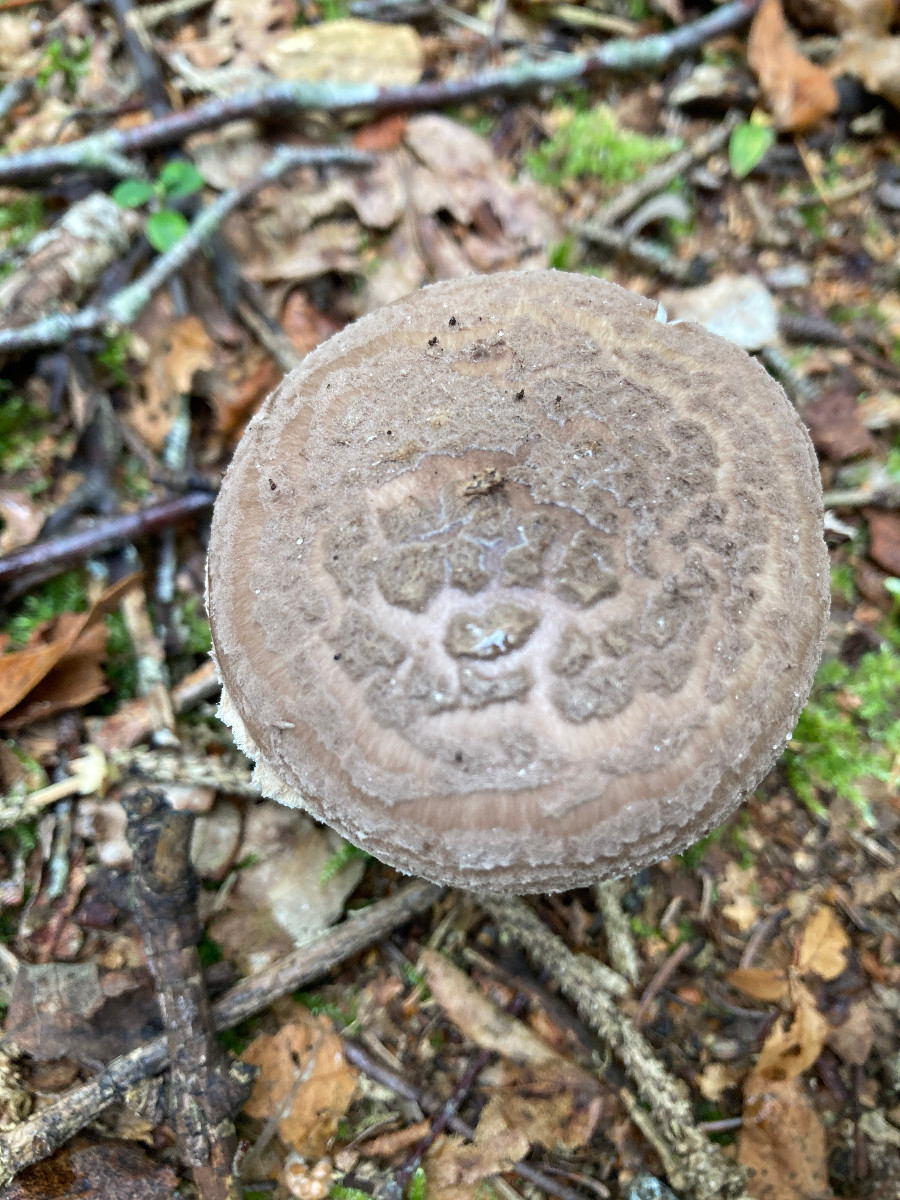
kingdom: Fungi
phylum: Basidiomycota
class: Agaricomycetes
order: Agaricales
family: Amanitaceae
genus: Amanita
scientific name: Amanita porphyria
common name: porfyr-fluesvamp
